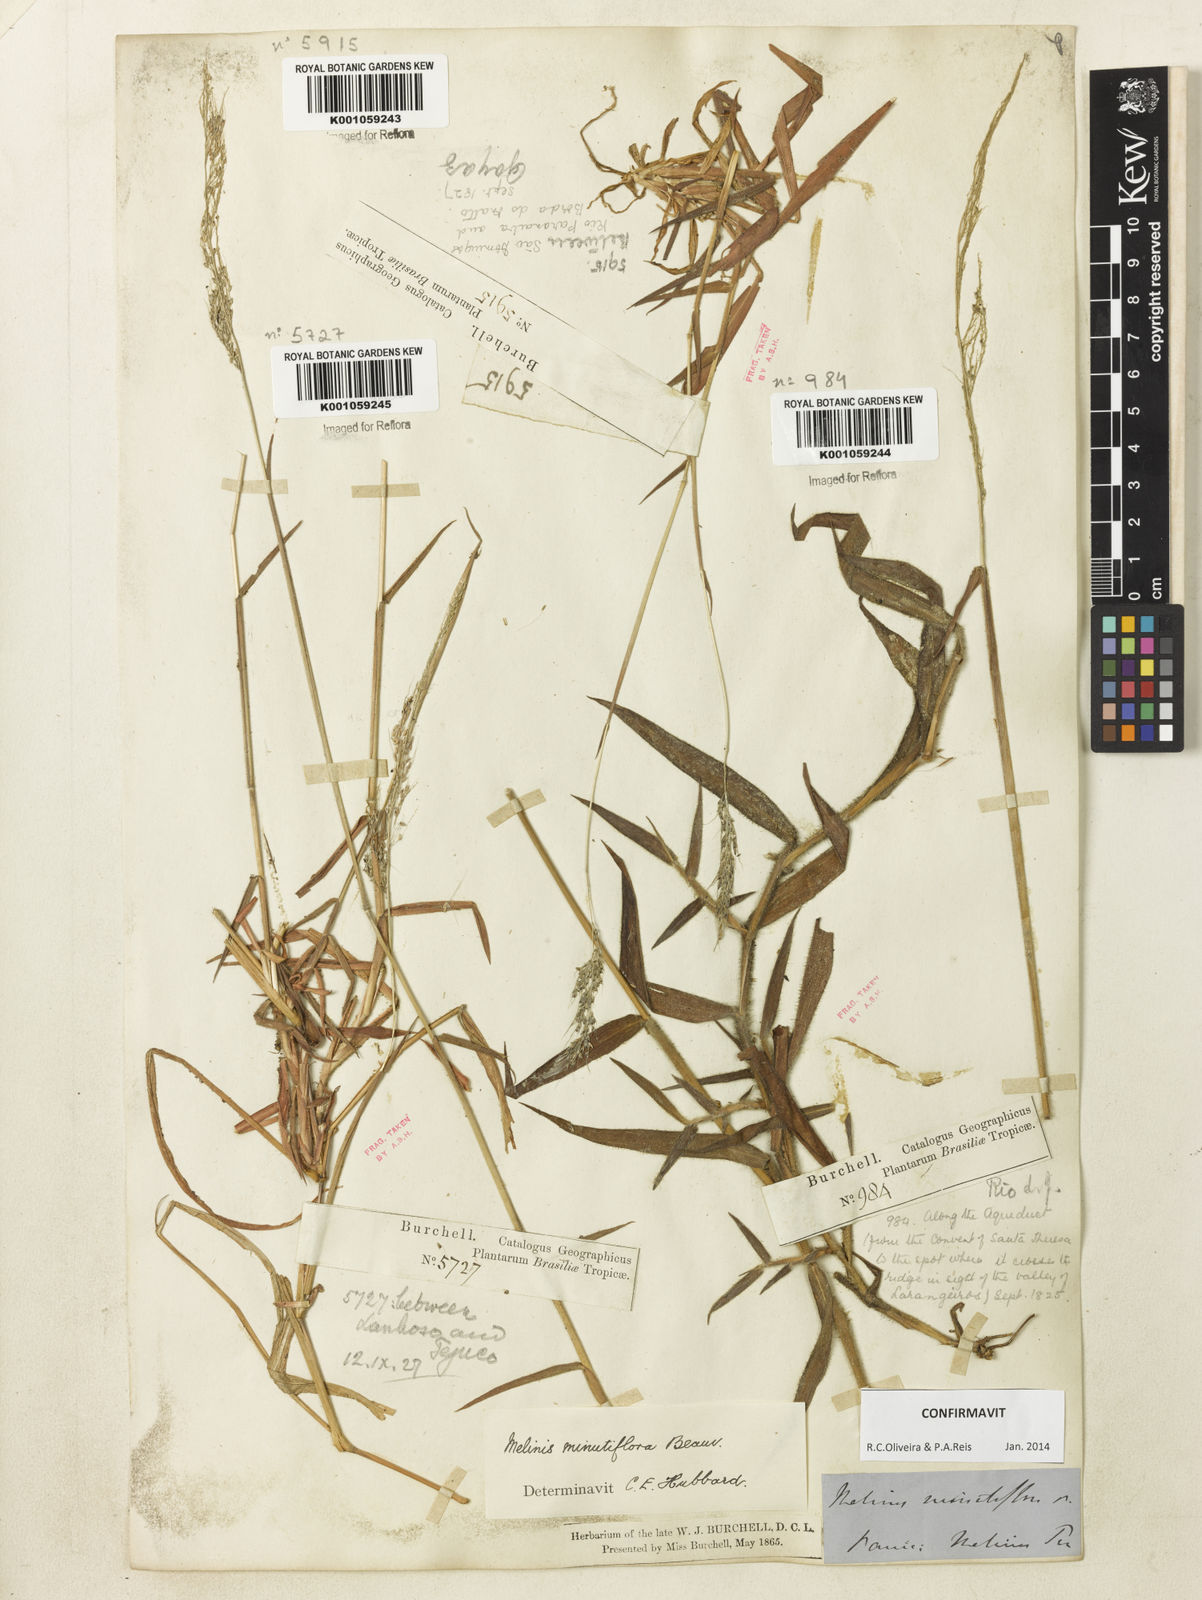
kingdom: Plantae
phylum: Tracheophyta
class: Liliopsida
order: Poales
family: Poaceae
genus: Melinis
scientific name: Melinis minutiflora
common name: Molassesgrass
